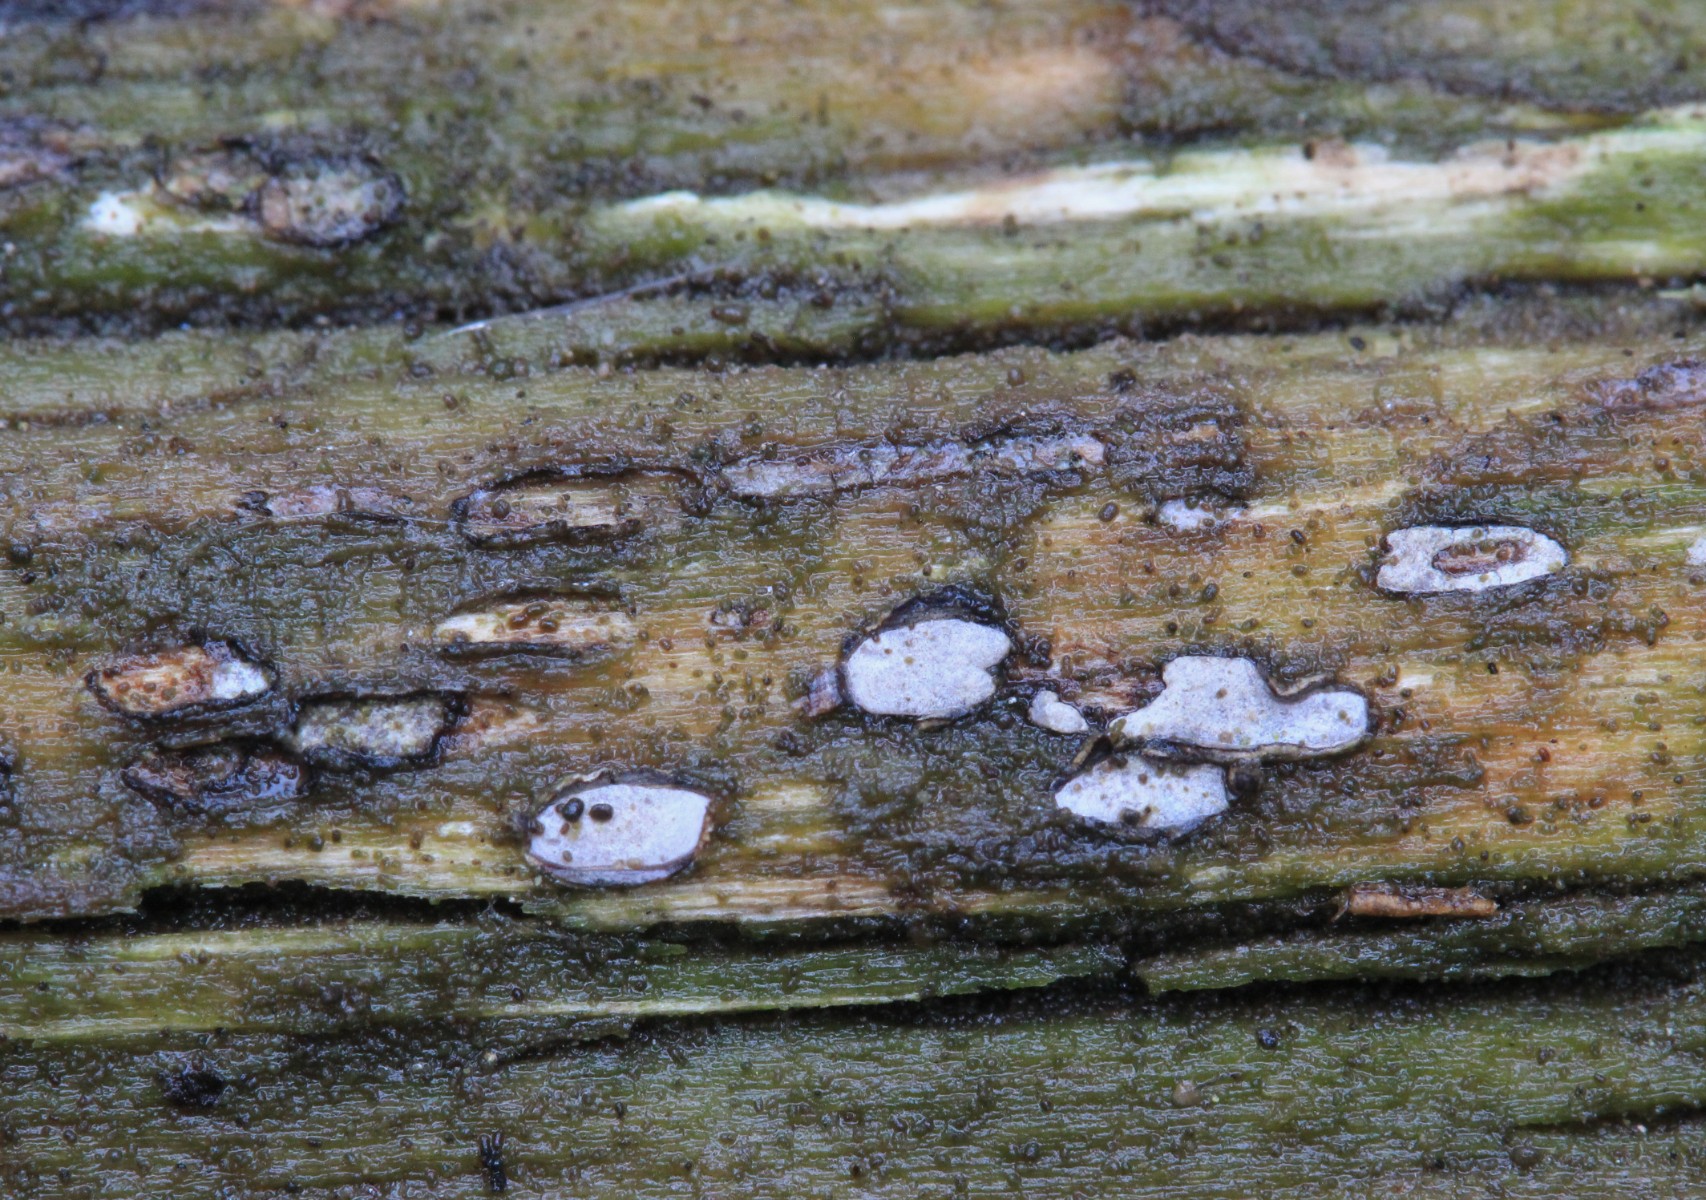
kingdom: Fungi
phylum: Ascomycota
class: Leotiomycetes
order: Chaetomellales
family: Marthamycetaceae
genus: Propolis
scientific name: Propolis farinosa
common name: almindelig vedsprængerskive
